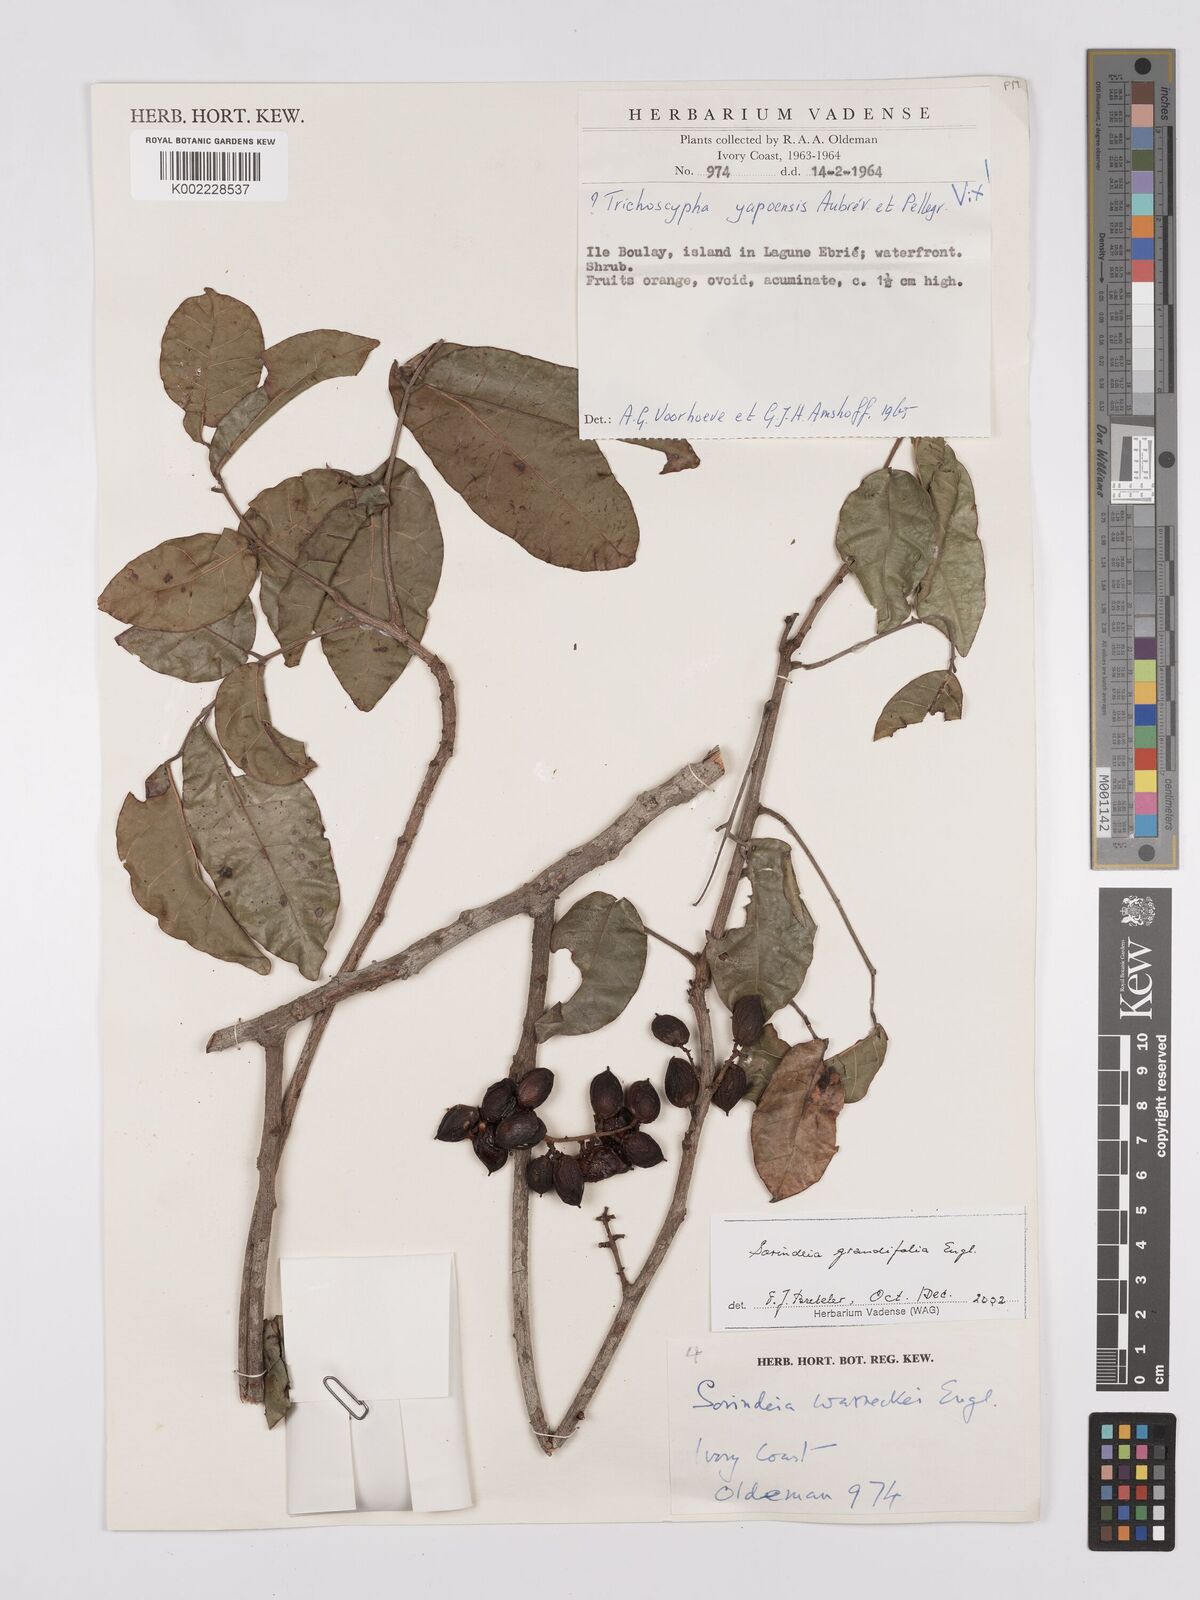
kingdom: Plantae
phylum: Tracheophyta
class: Magnoliopsida
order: Sapindales
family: Anacardiaceae
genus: Sorindeia
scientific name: Sorindeia grandifolia
